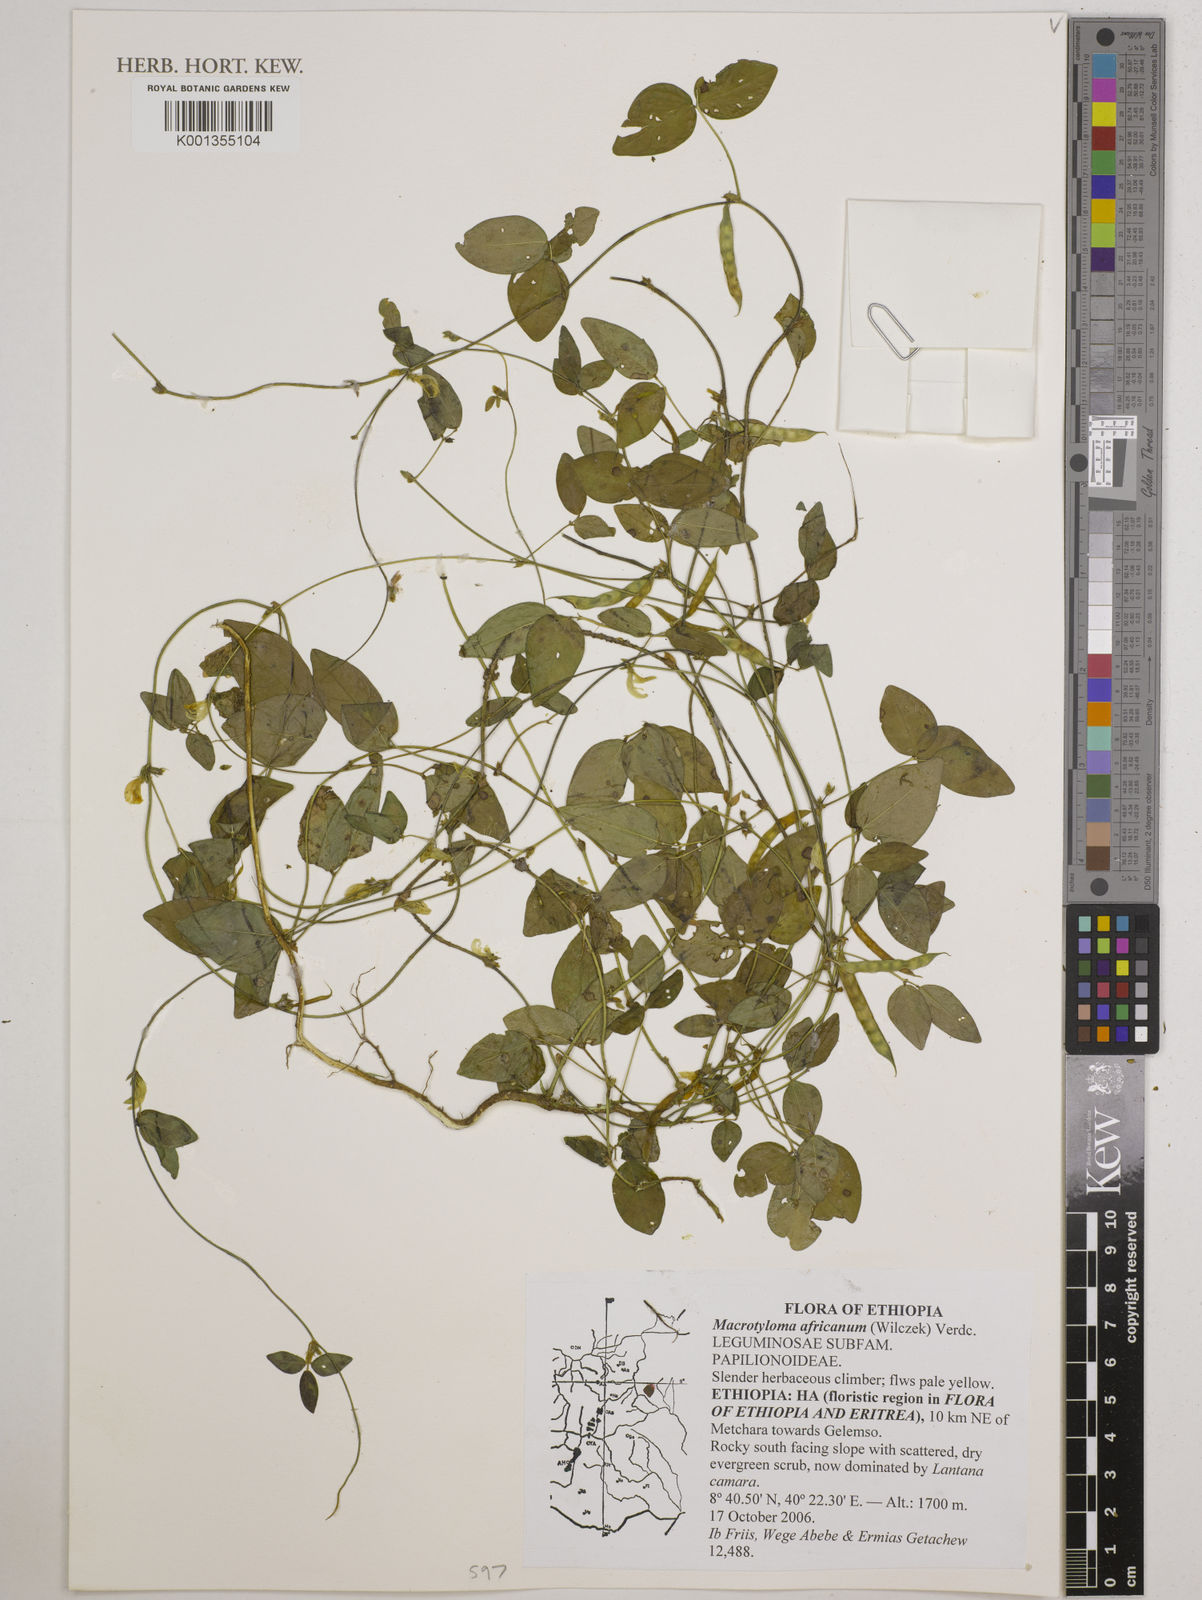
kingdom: Plantae
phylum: Tracheophyta
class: Magnoliopsida
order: Fabales
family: Fabaceae
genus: Macrotyloma
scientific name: Macrotyloma africanum
